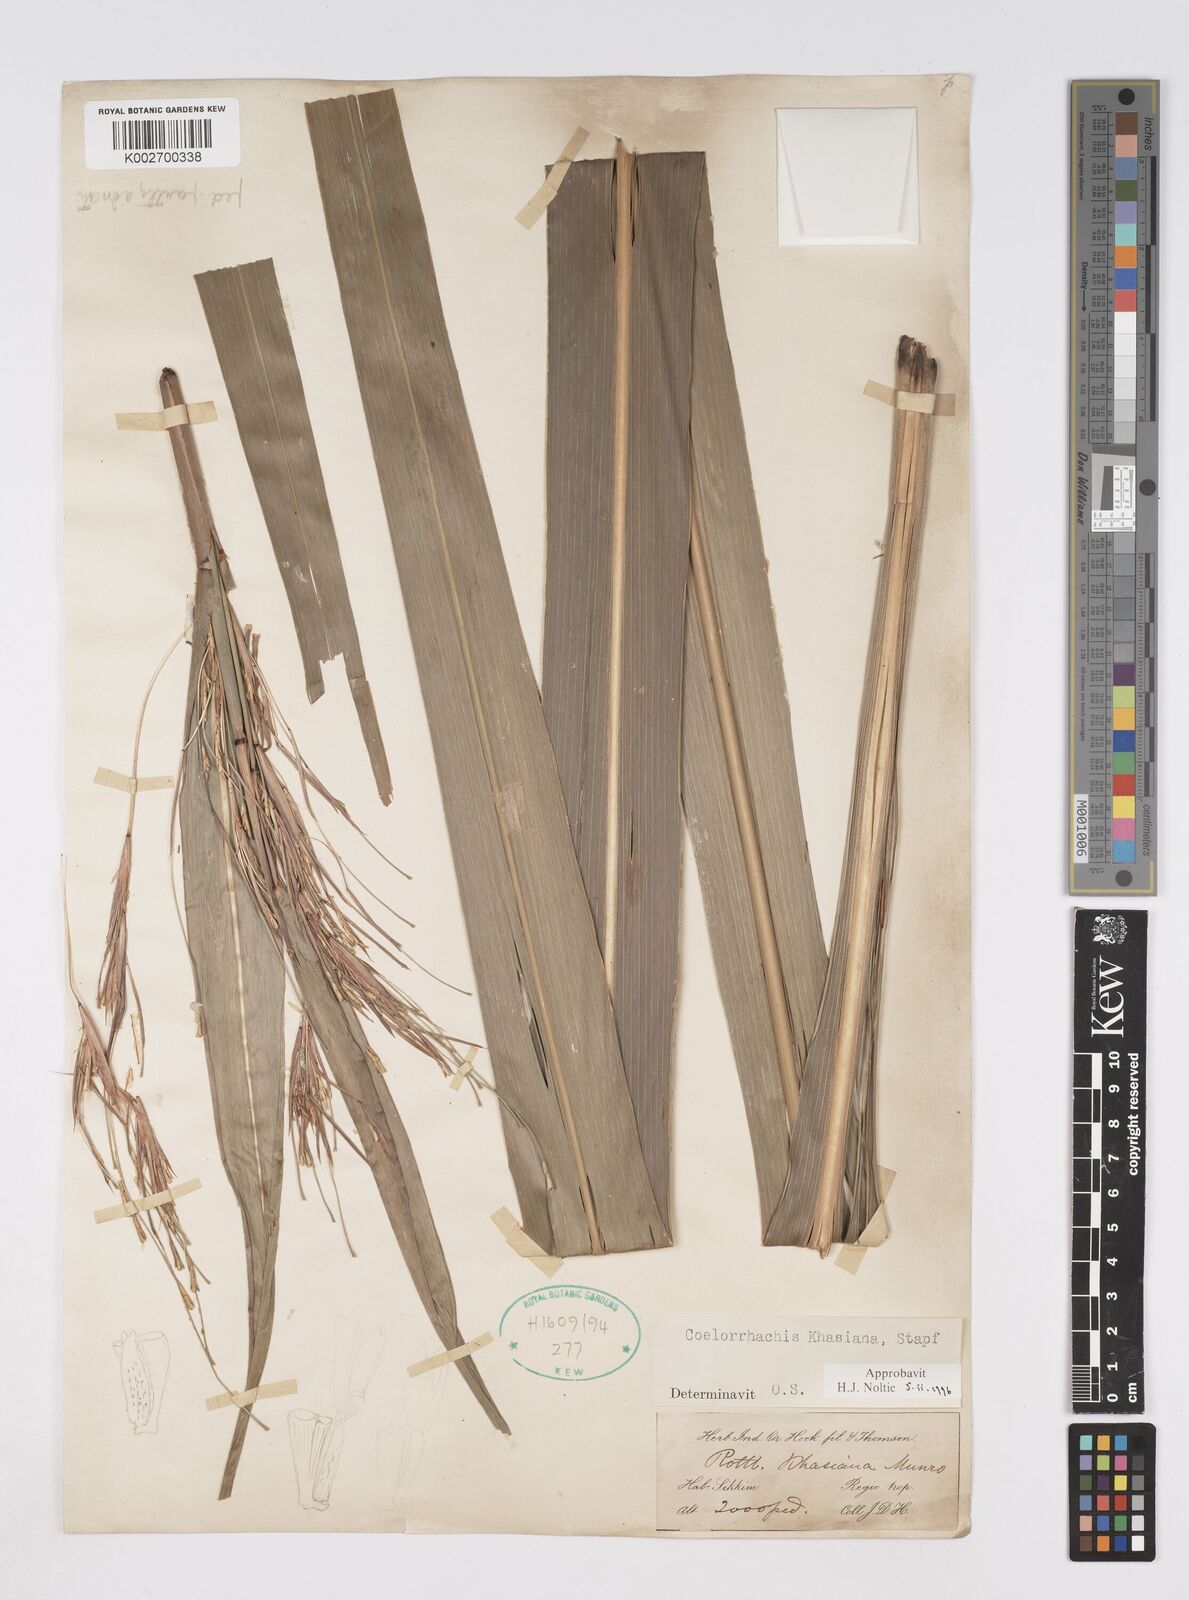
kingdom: Plantae
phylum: Tracheophyta
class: Liliopsida
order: Poales
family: Poaceae
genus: Rottboellia
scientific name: Rottboellia striata
